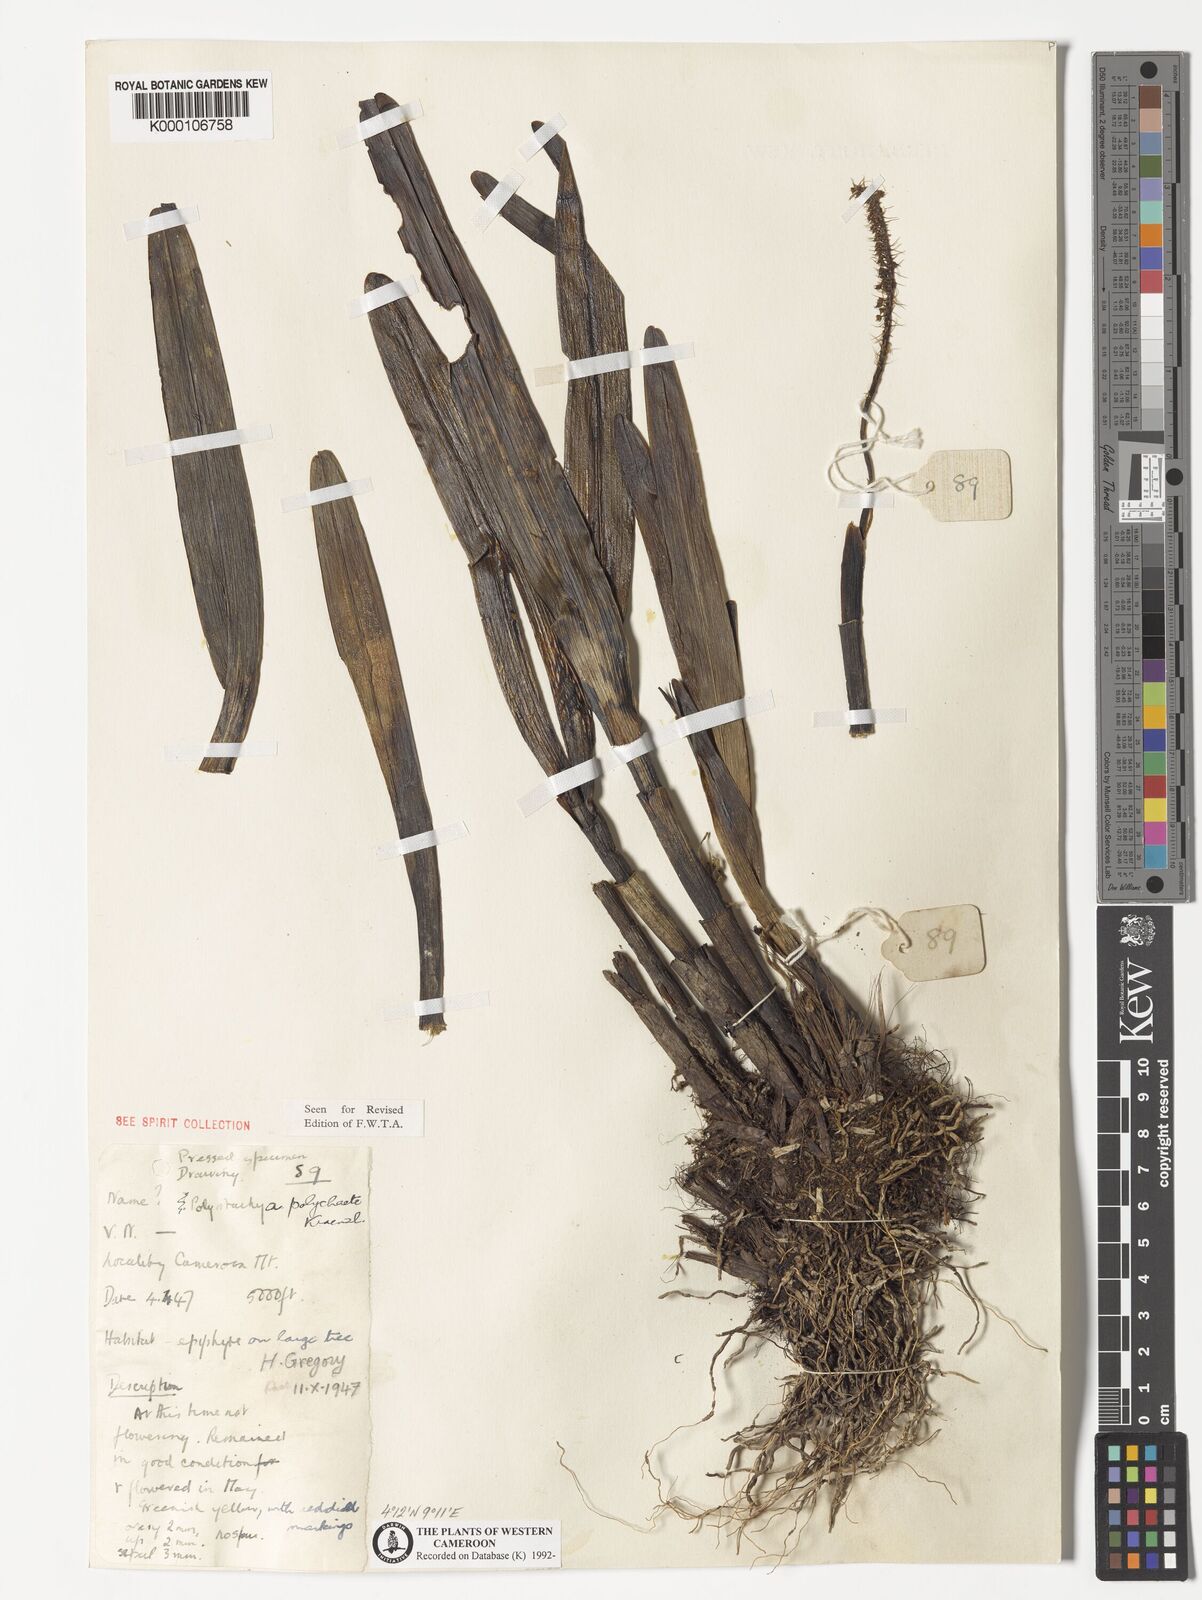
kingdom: Plantae
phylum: Tracheophyta
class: Liliopsida
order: Asparagales
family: Orchidaceae
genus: Polystachya
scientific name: Polystachya polychaete
